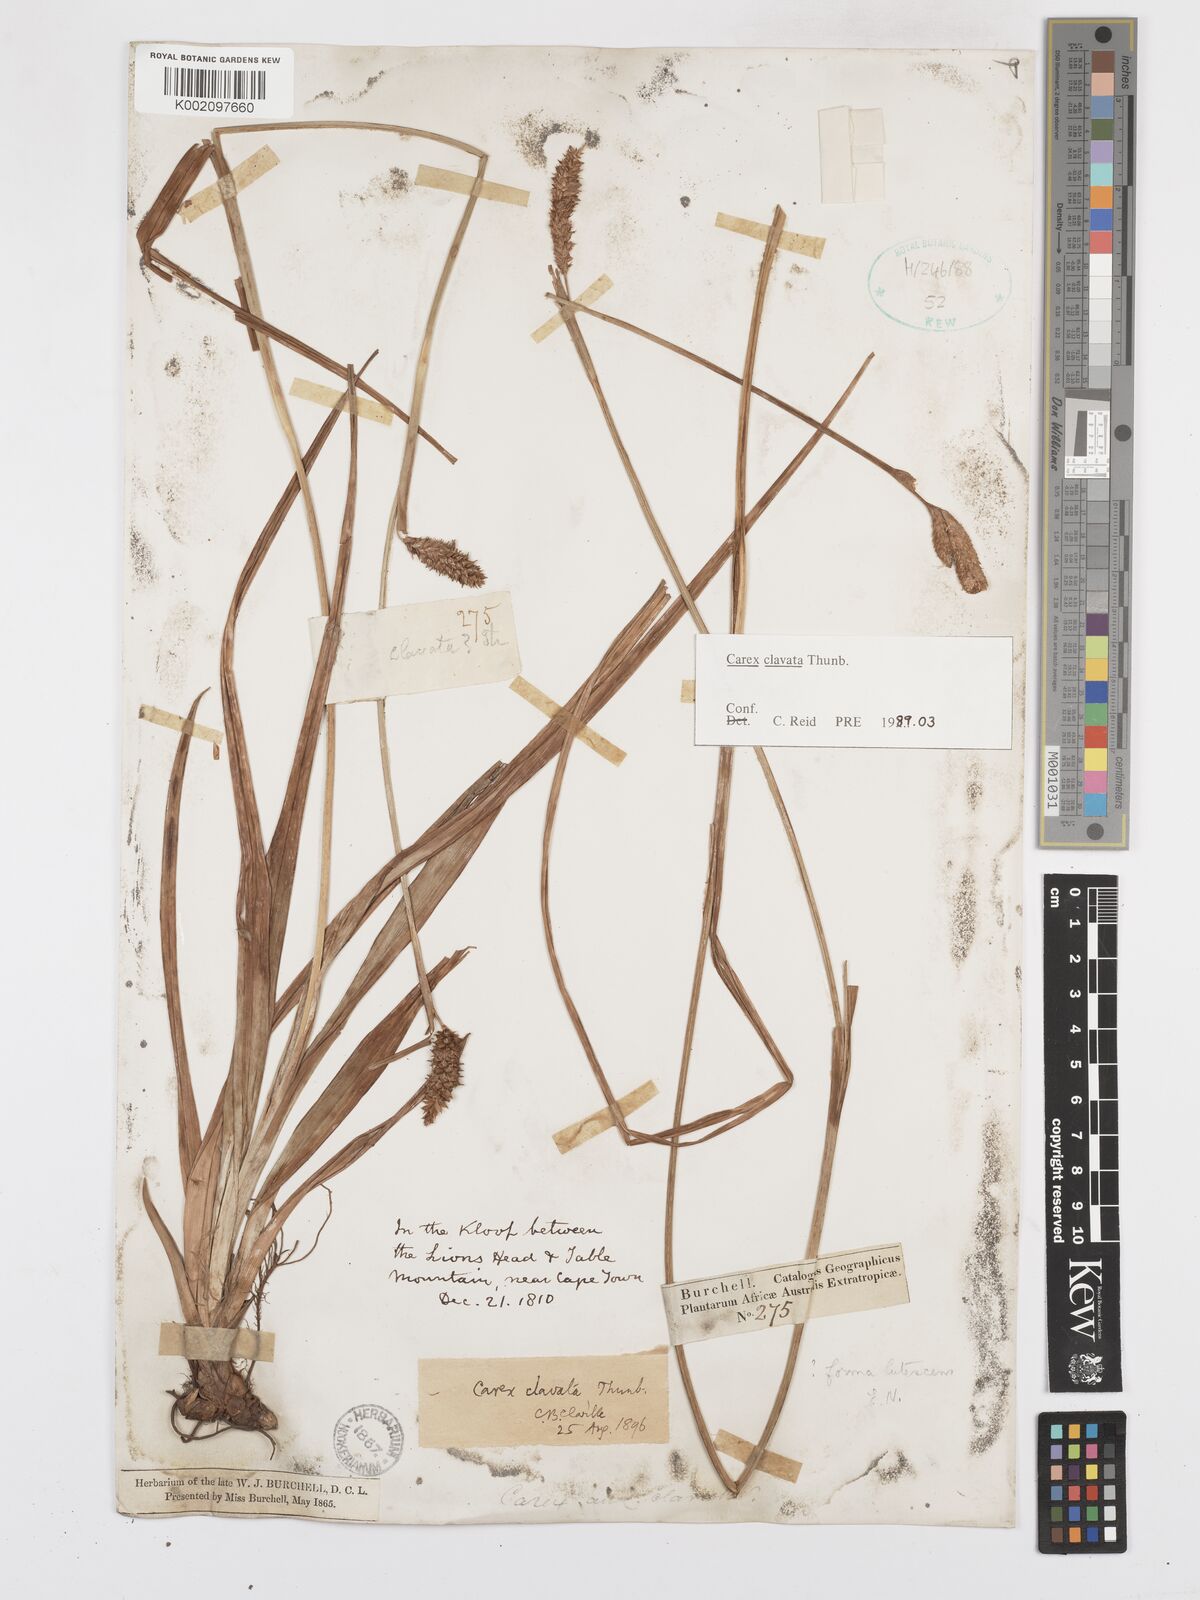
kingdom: Plantae
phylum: Tracheophyta
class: Liliopsida
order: Poales
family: Cyperaceae
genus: Carex
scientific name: Carex clavata
